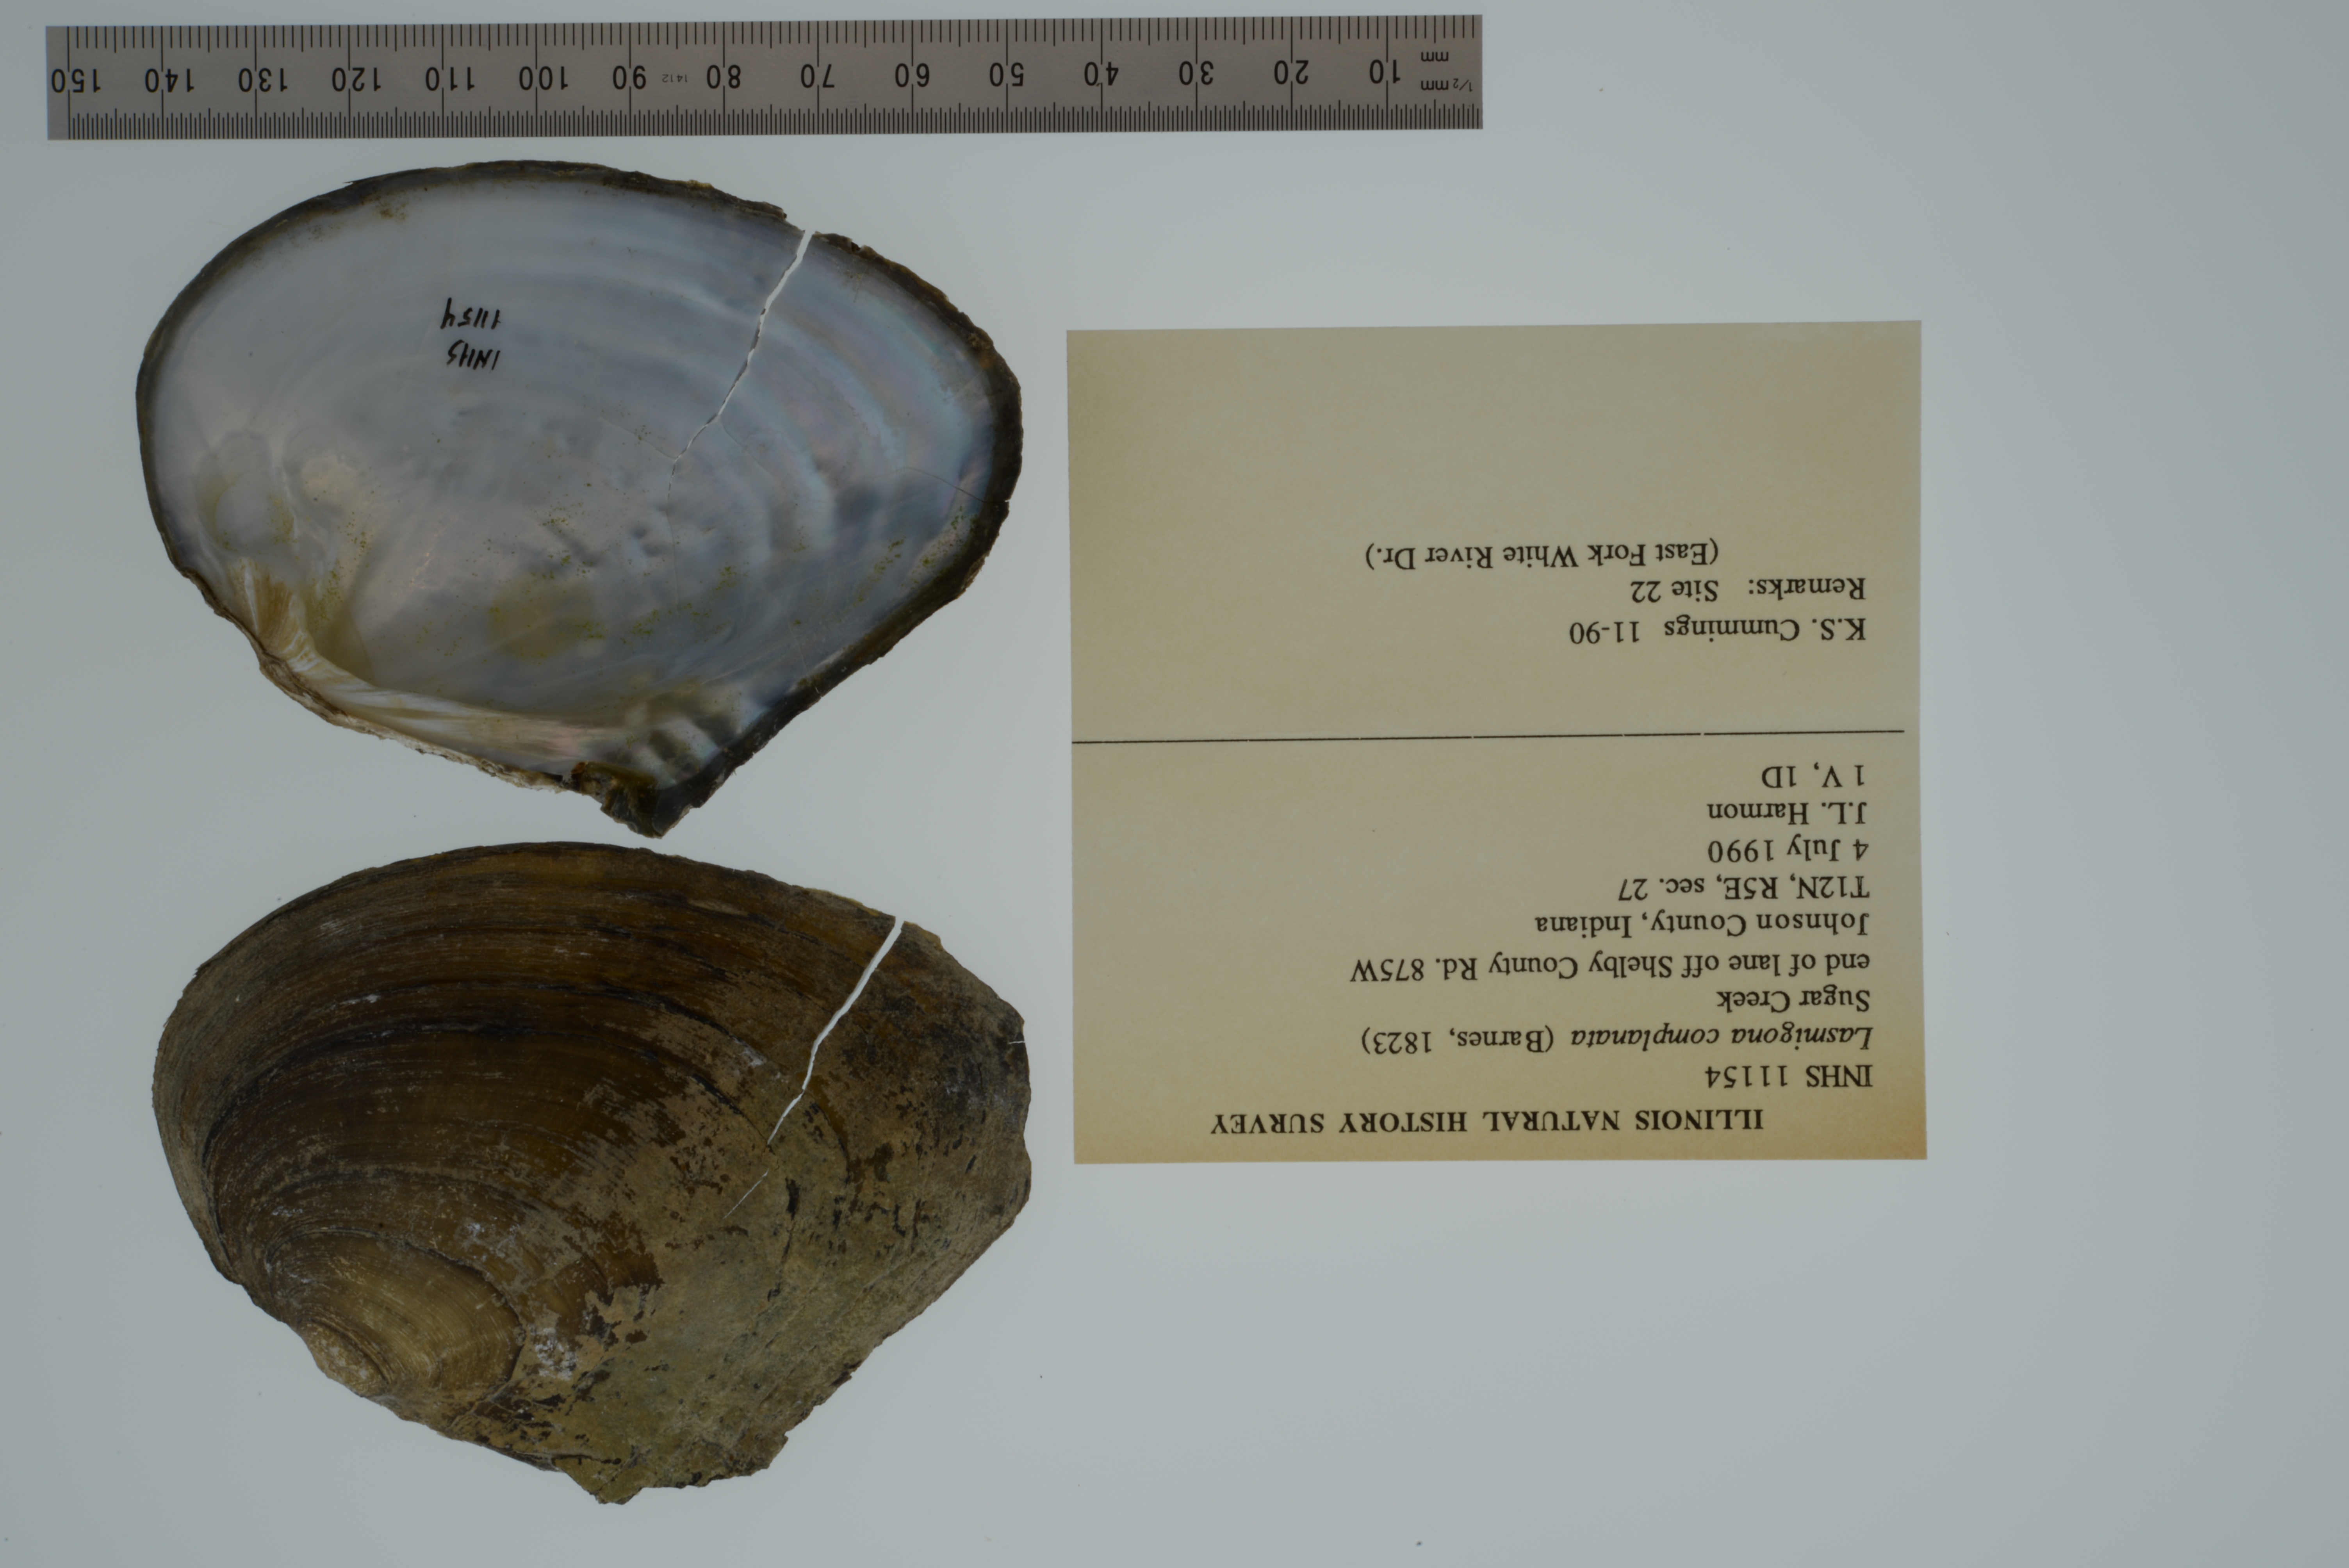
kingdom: Animalia
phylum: Mollusca
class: Bivalvia
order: Unionida
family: Unionidae
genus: Lasmigona
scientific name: Lasmigona complanata
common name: White heelsplitter
